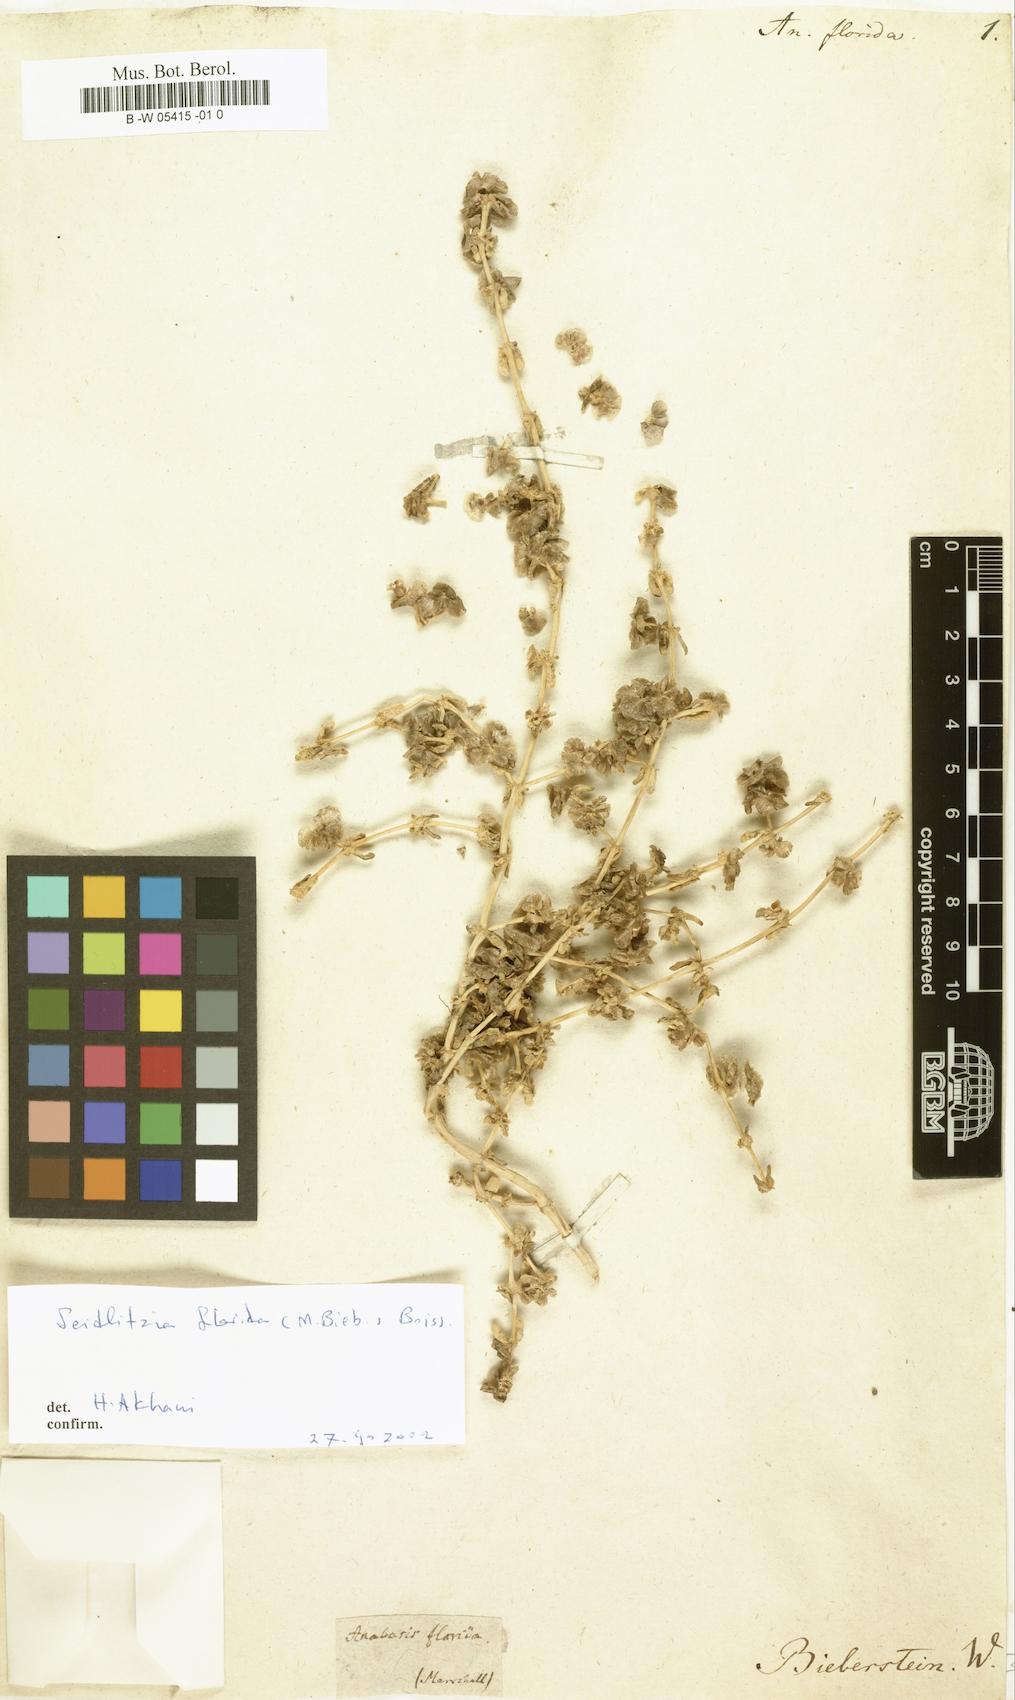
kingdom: Plantae
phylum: Tracheophyta
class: Magnoliopsida
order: Caryophyllales
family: Amaranthaceae
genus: Soda
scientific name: Soda florida
